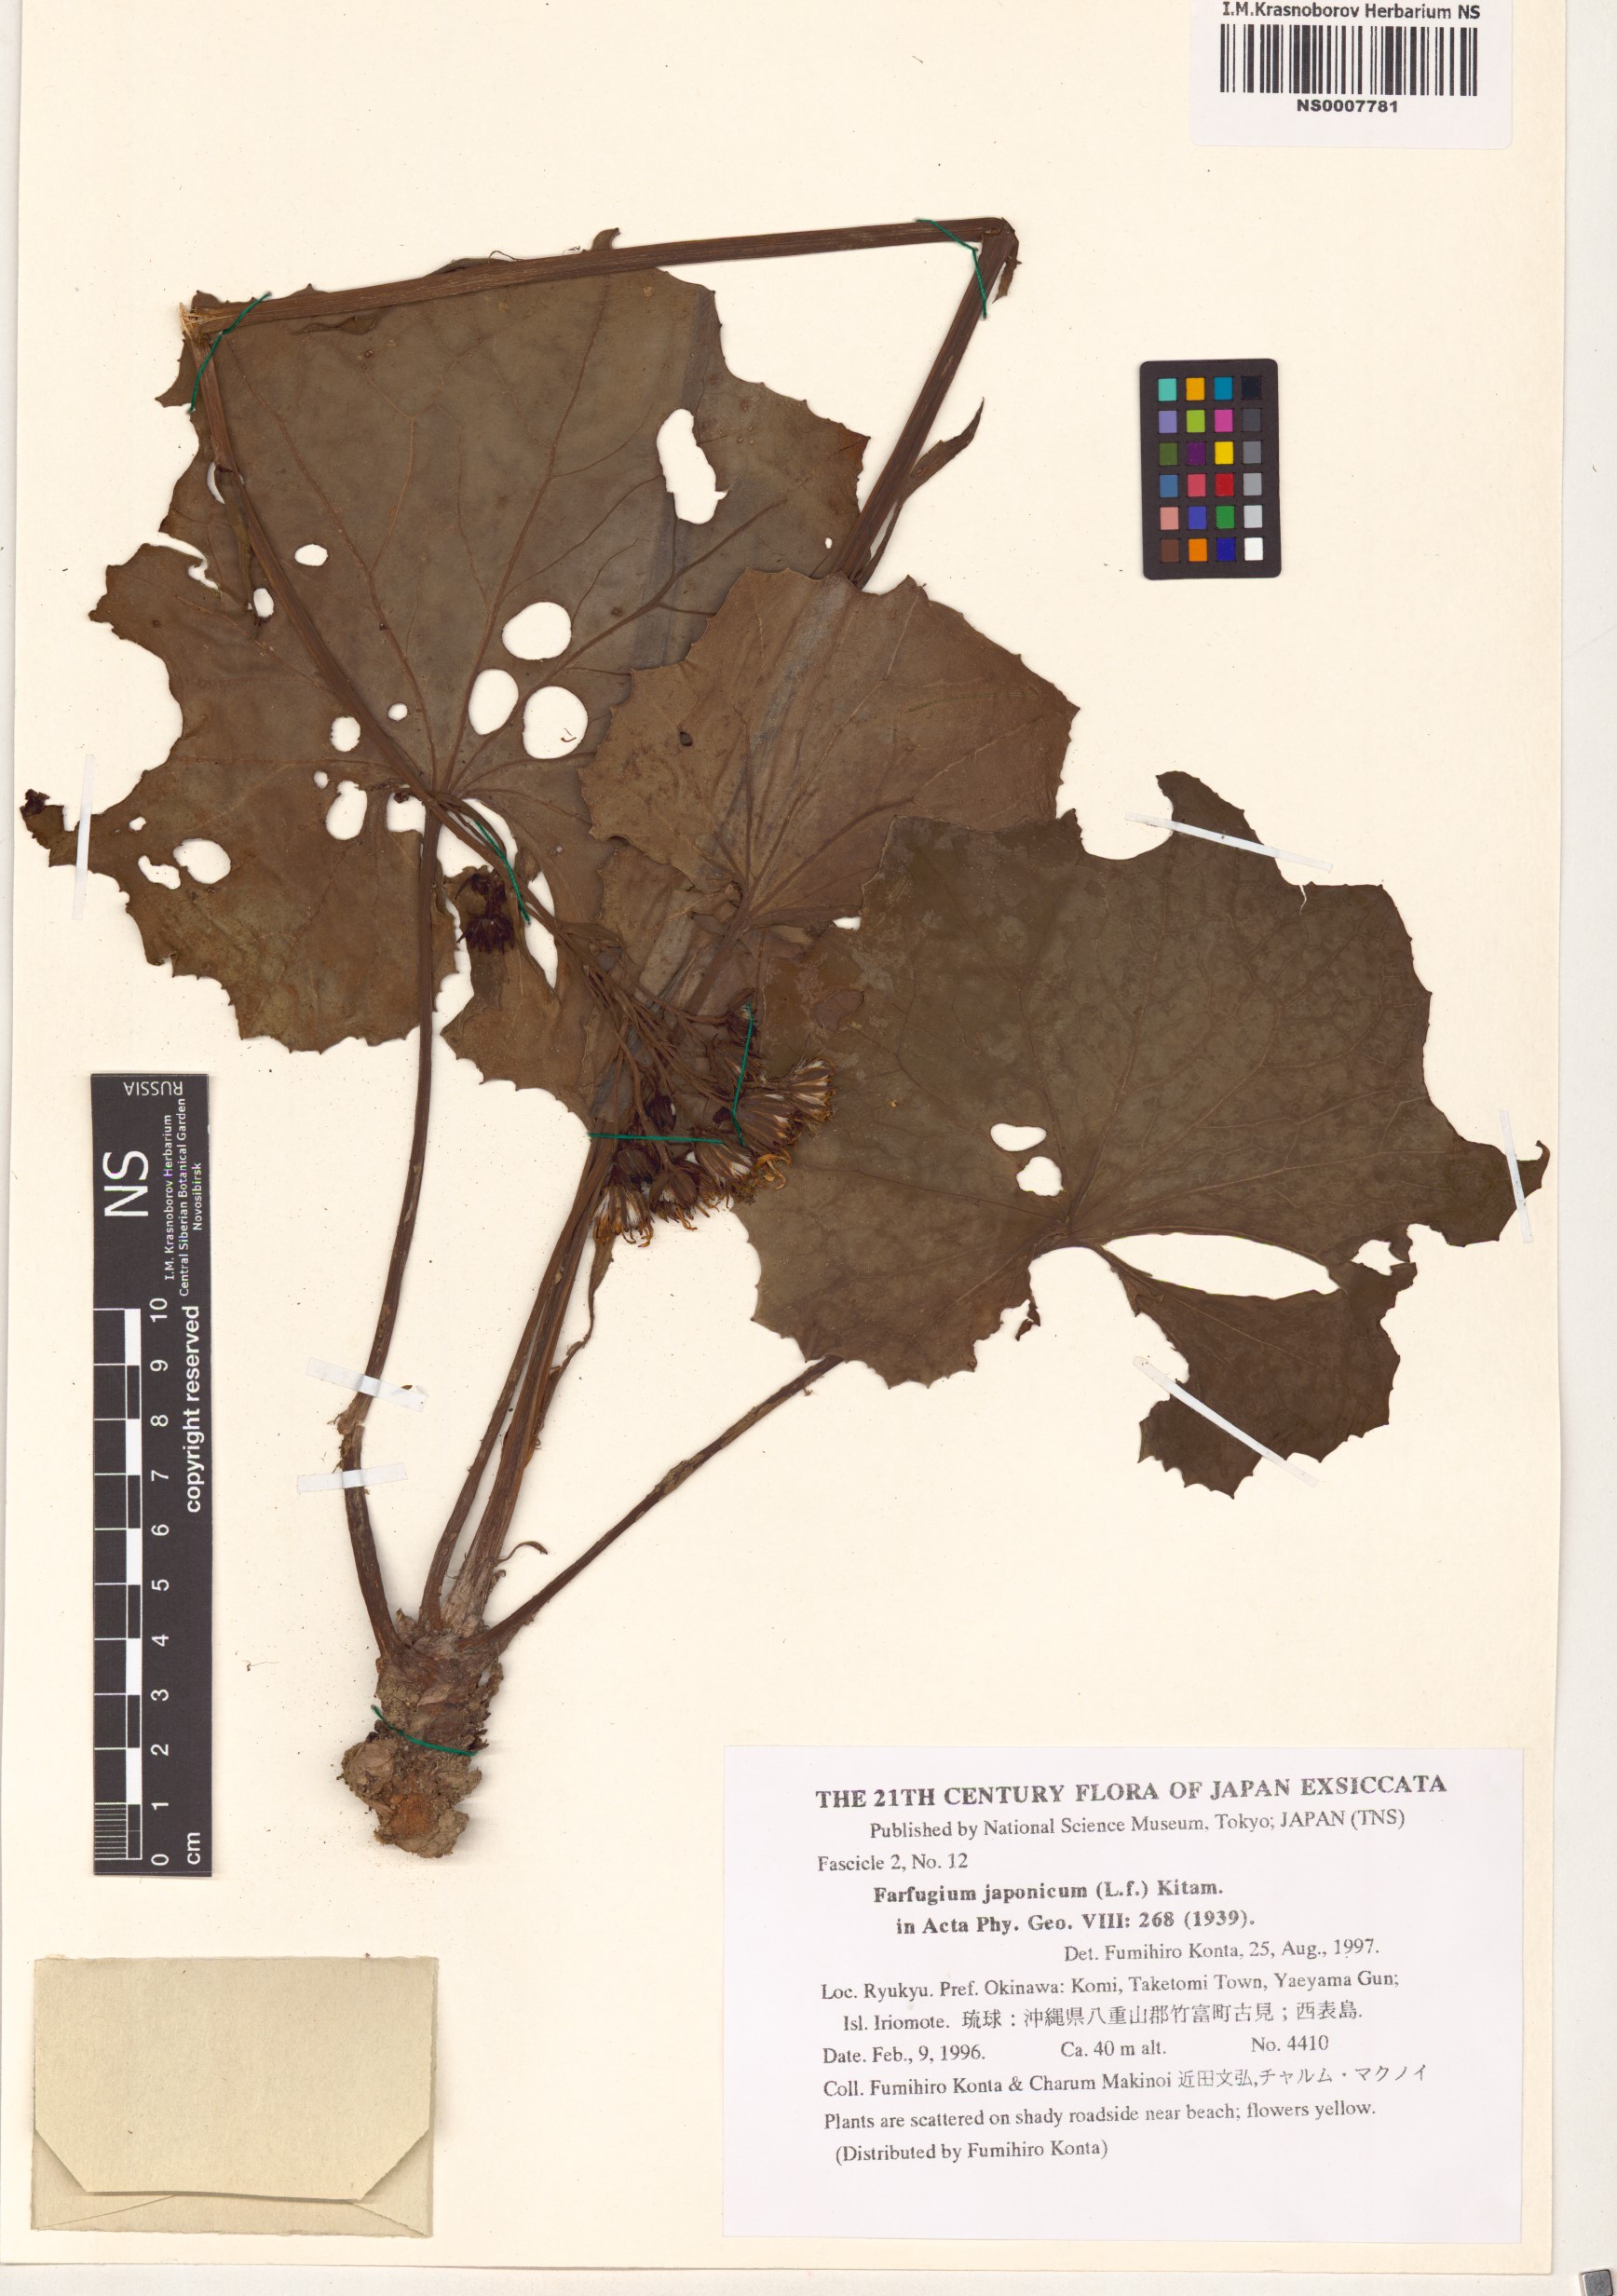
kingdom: Plantae
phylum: Tracheophyta
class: Magnoliopsida
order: Asterales
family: Asteraceae
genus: Farfugium
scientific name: Farfugium japonicum
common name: Leopardplant
